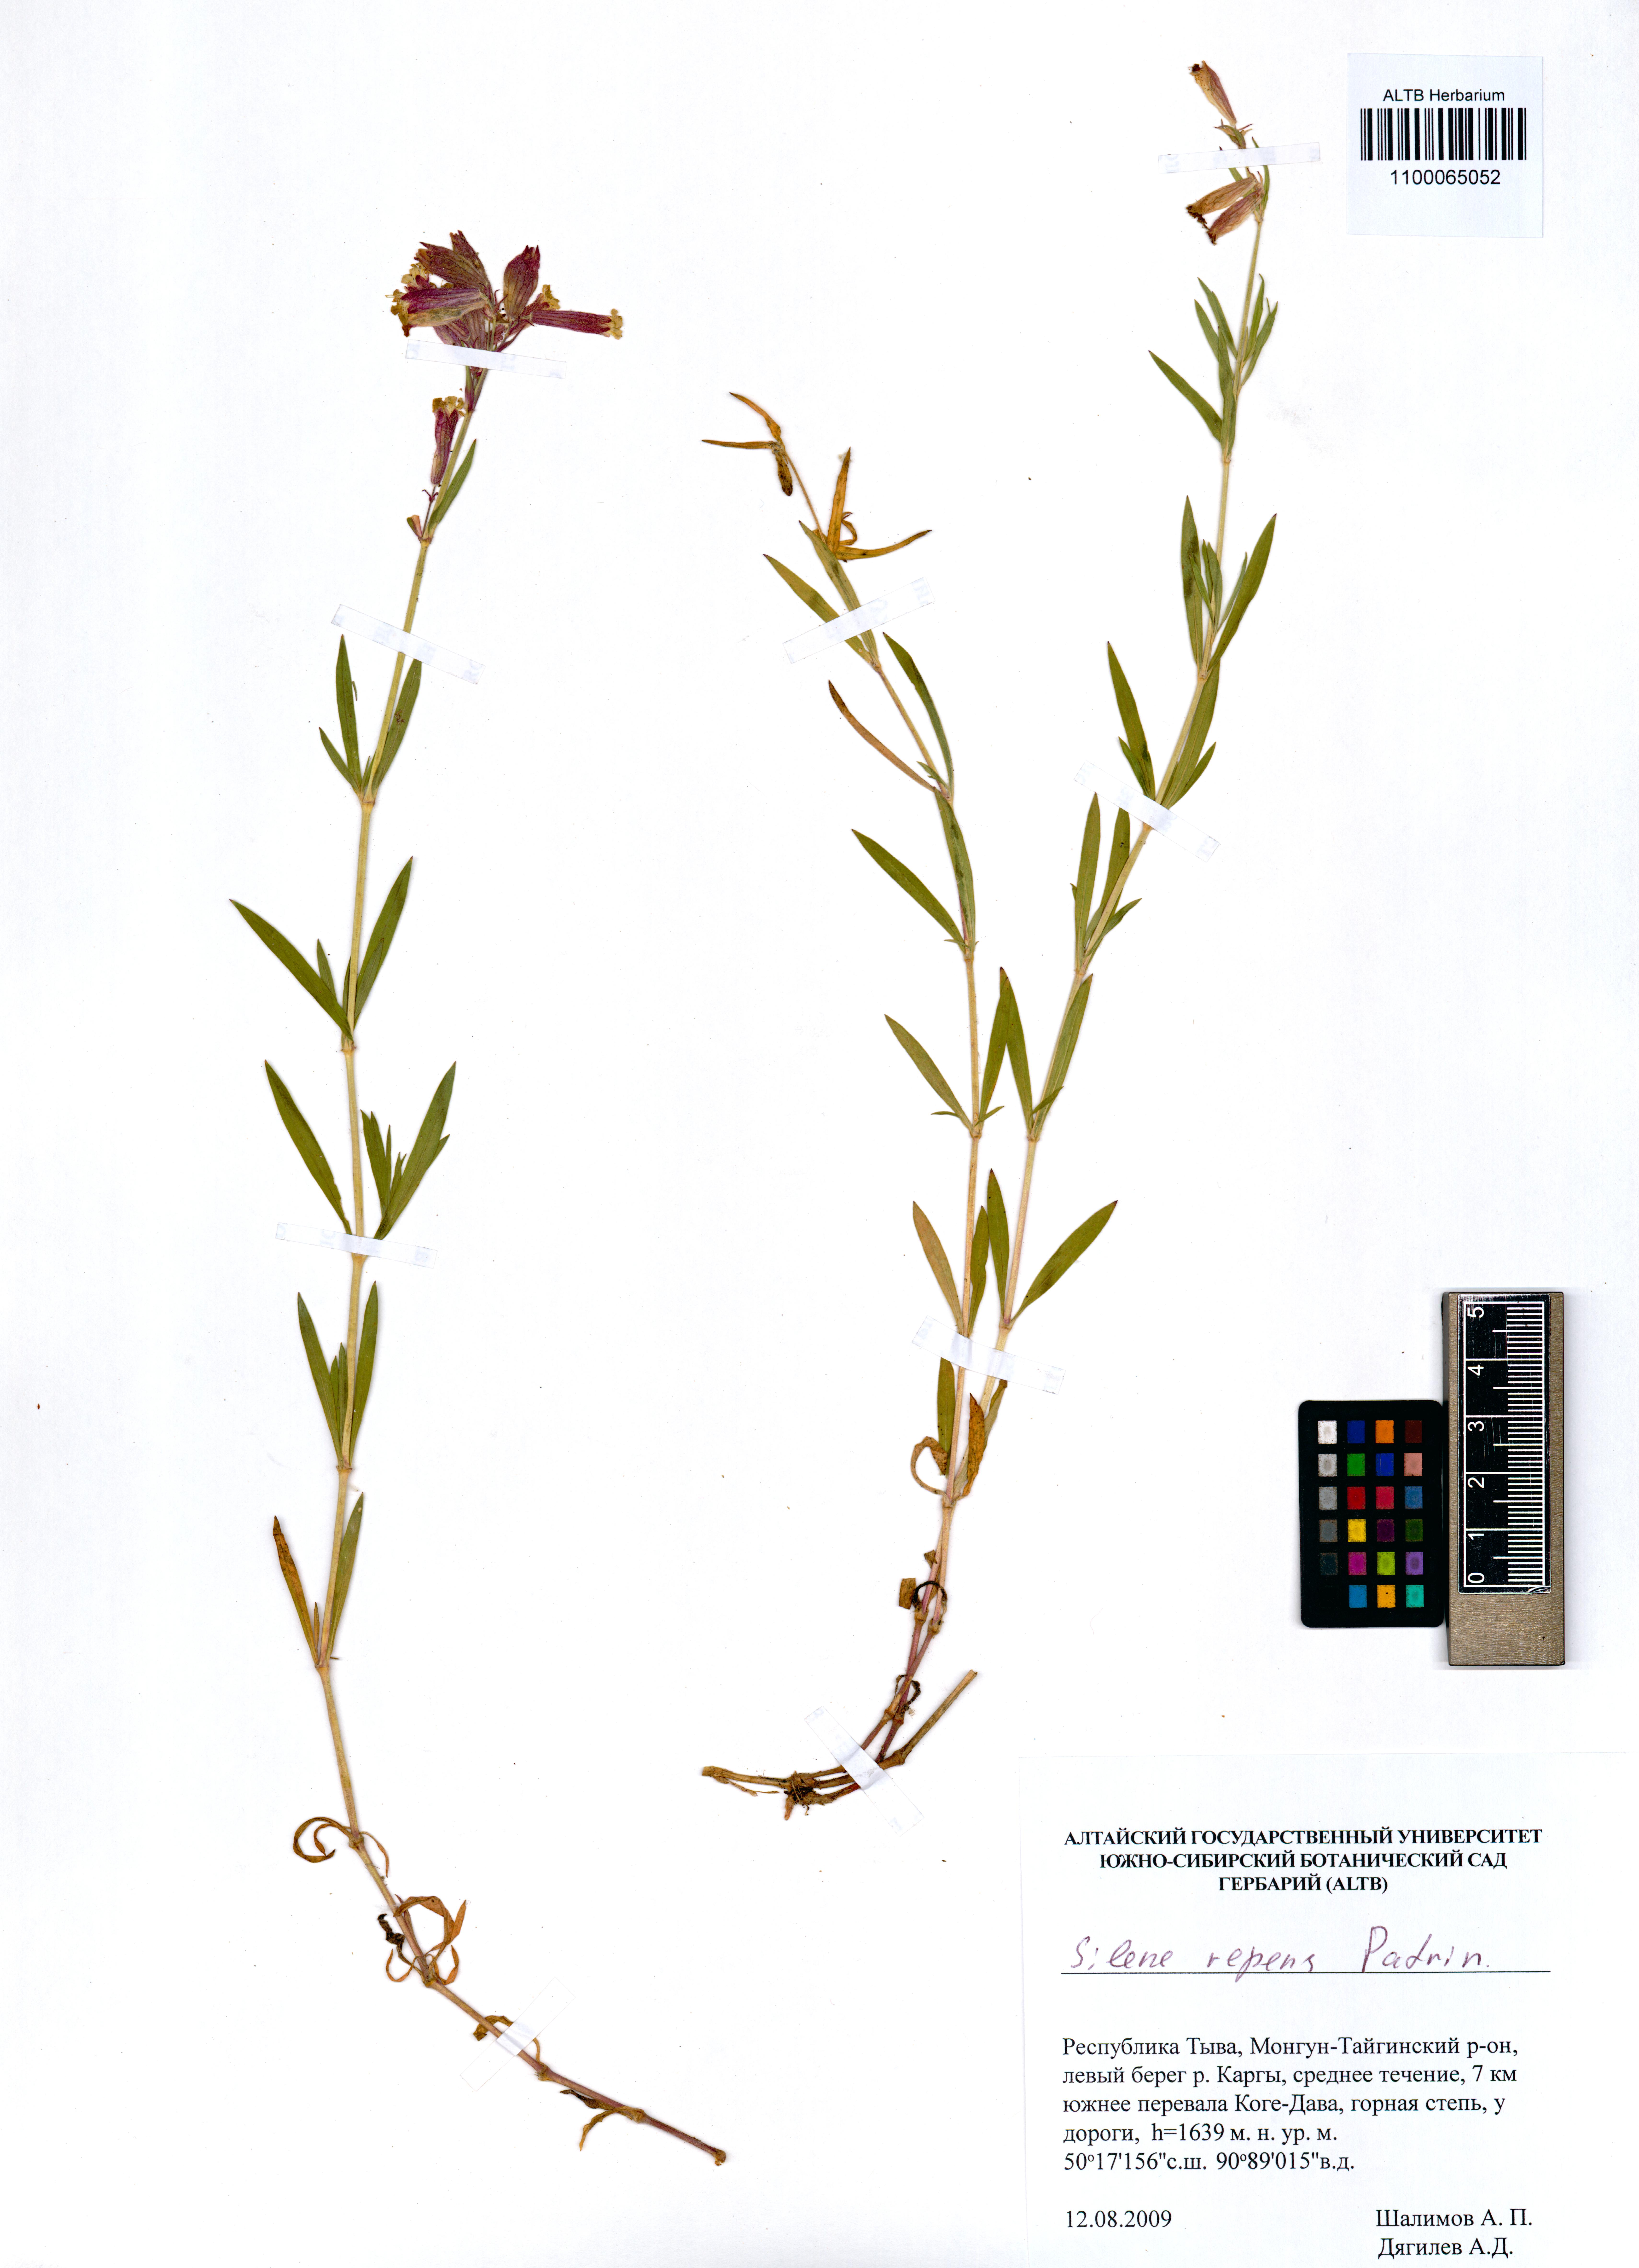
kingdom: Plantae
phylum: Tracheophyta
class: Magnoliopsida
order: Caryophyllales
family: Caryophyllaceae
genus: Silene
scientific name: Silene repens
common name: Pink campion
